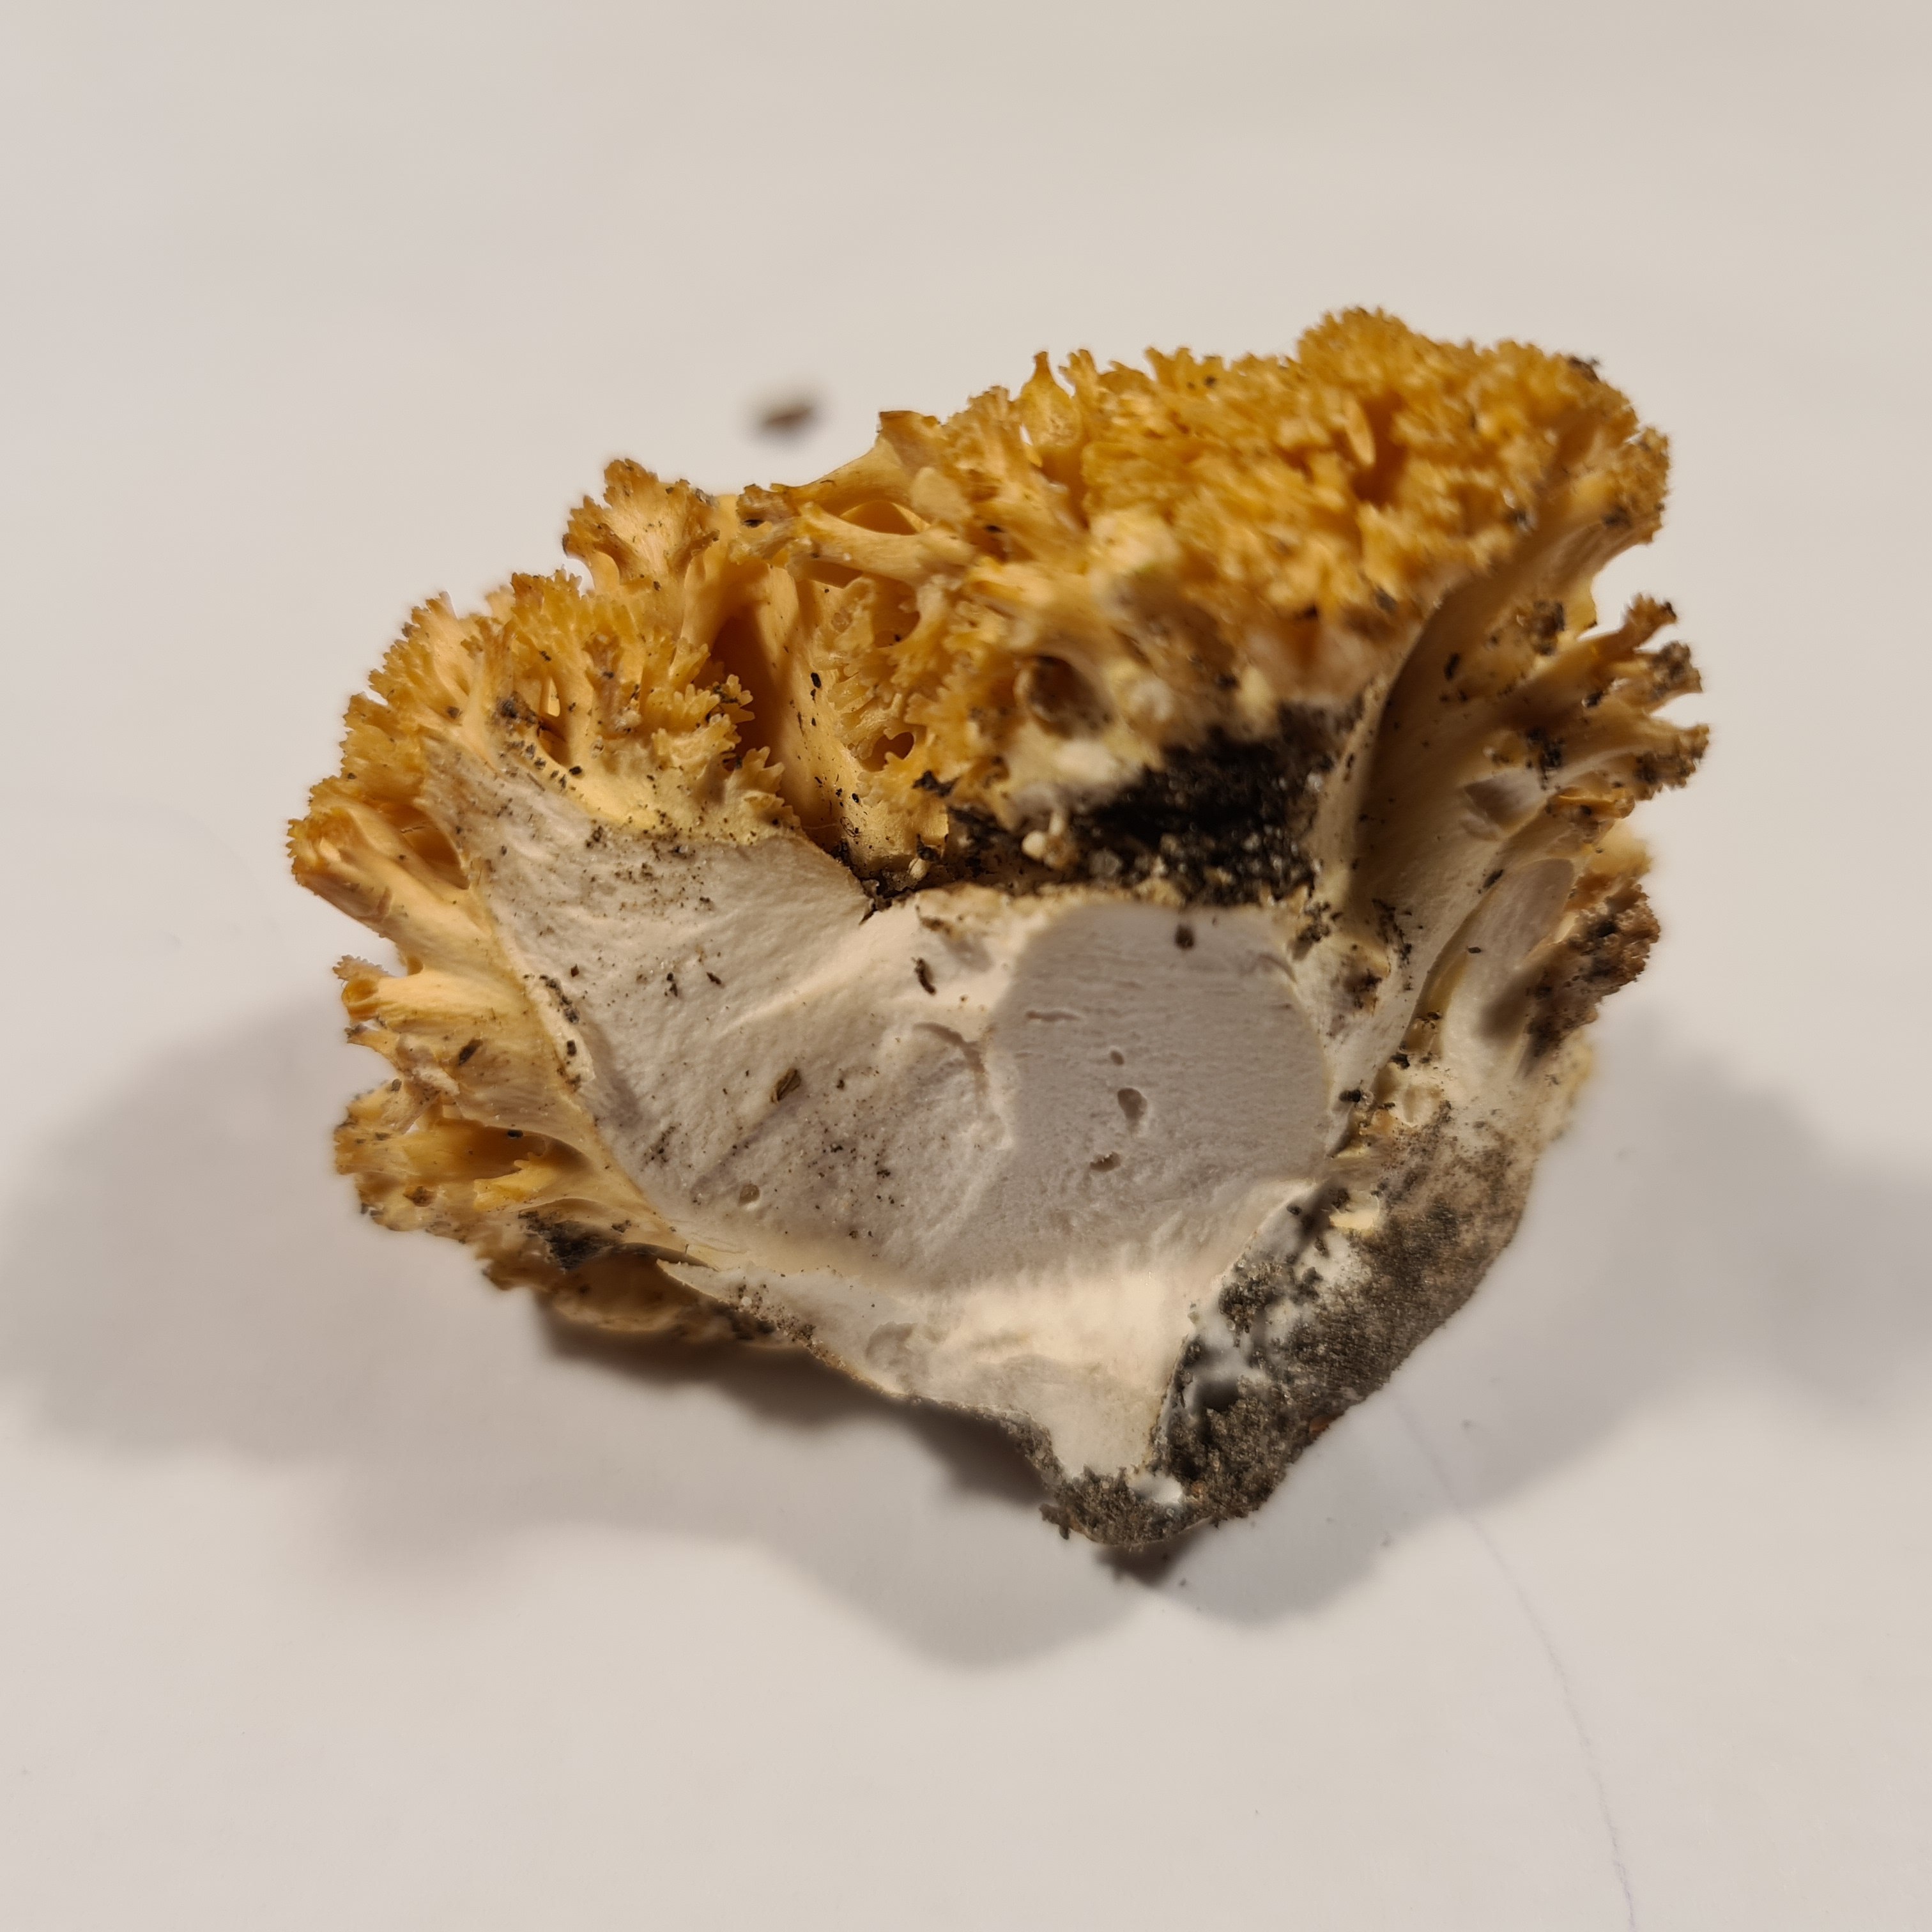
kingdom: Fungi
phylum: Basidiomycota
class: Agaricomycetes
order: Gomphales
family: Gomphaceae
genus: Ramaria
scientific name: Ramaria flavescens
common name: stor koralsvamp
